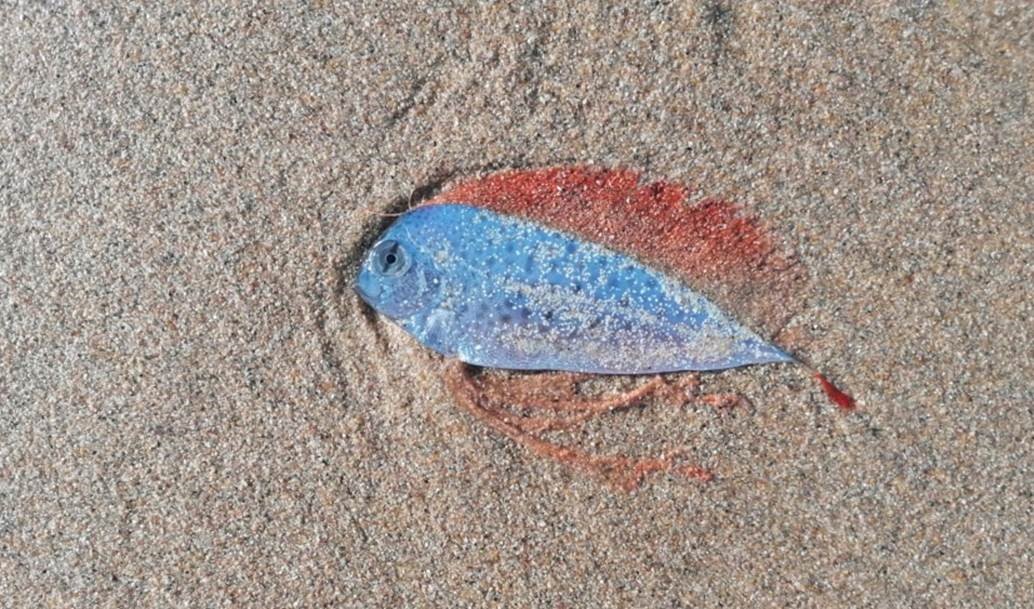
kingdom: Animalia
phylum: Chordata
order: Lampriformes
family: Trachipteridae
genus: Desmodema
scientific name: Desmodema polystictum
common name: Polka-dot ribbonfish
